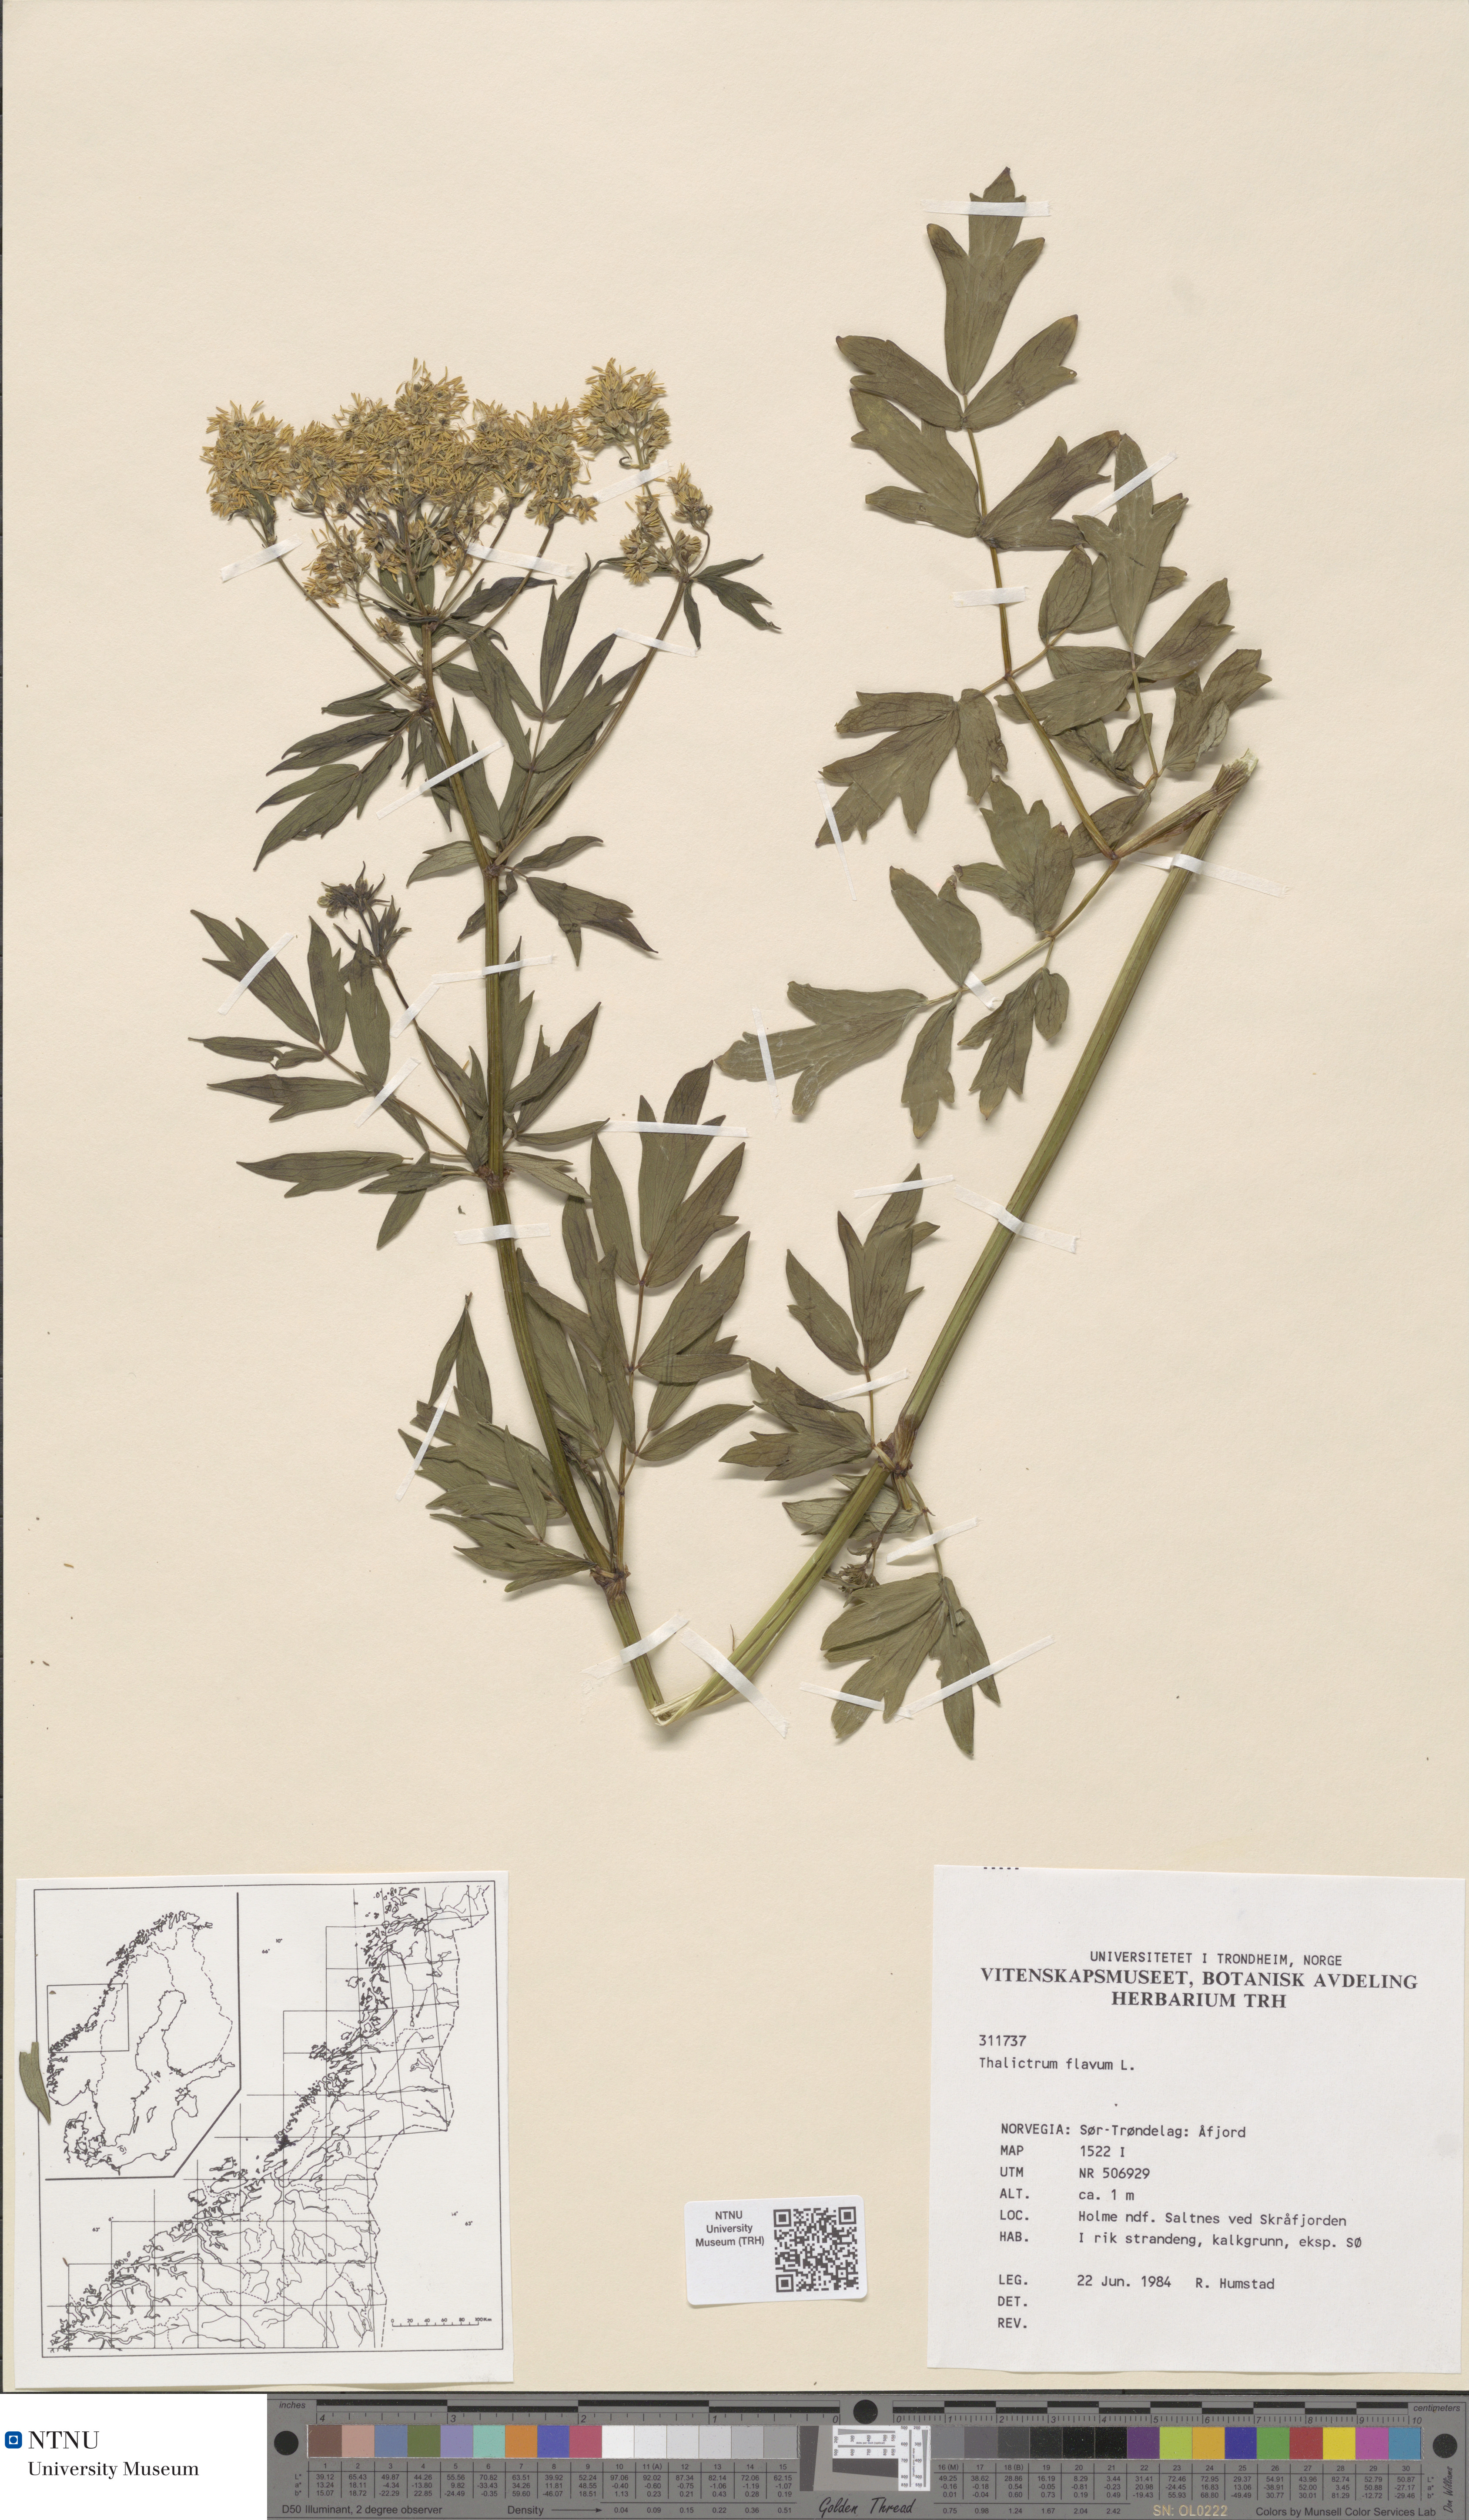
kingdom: Plantae
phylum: Tracheophyta
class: Magnoliopsida
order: Ranunculales
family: Ranunculaceae
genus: Thalictrum
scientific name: Thalictrum flavum
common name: Common meadow-rue
